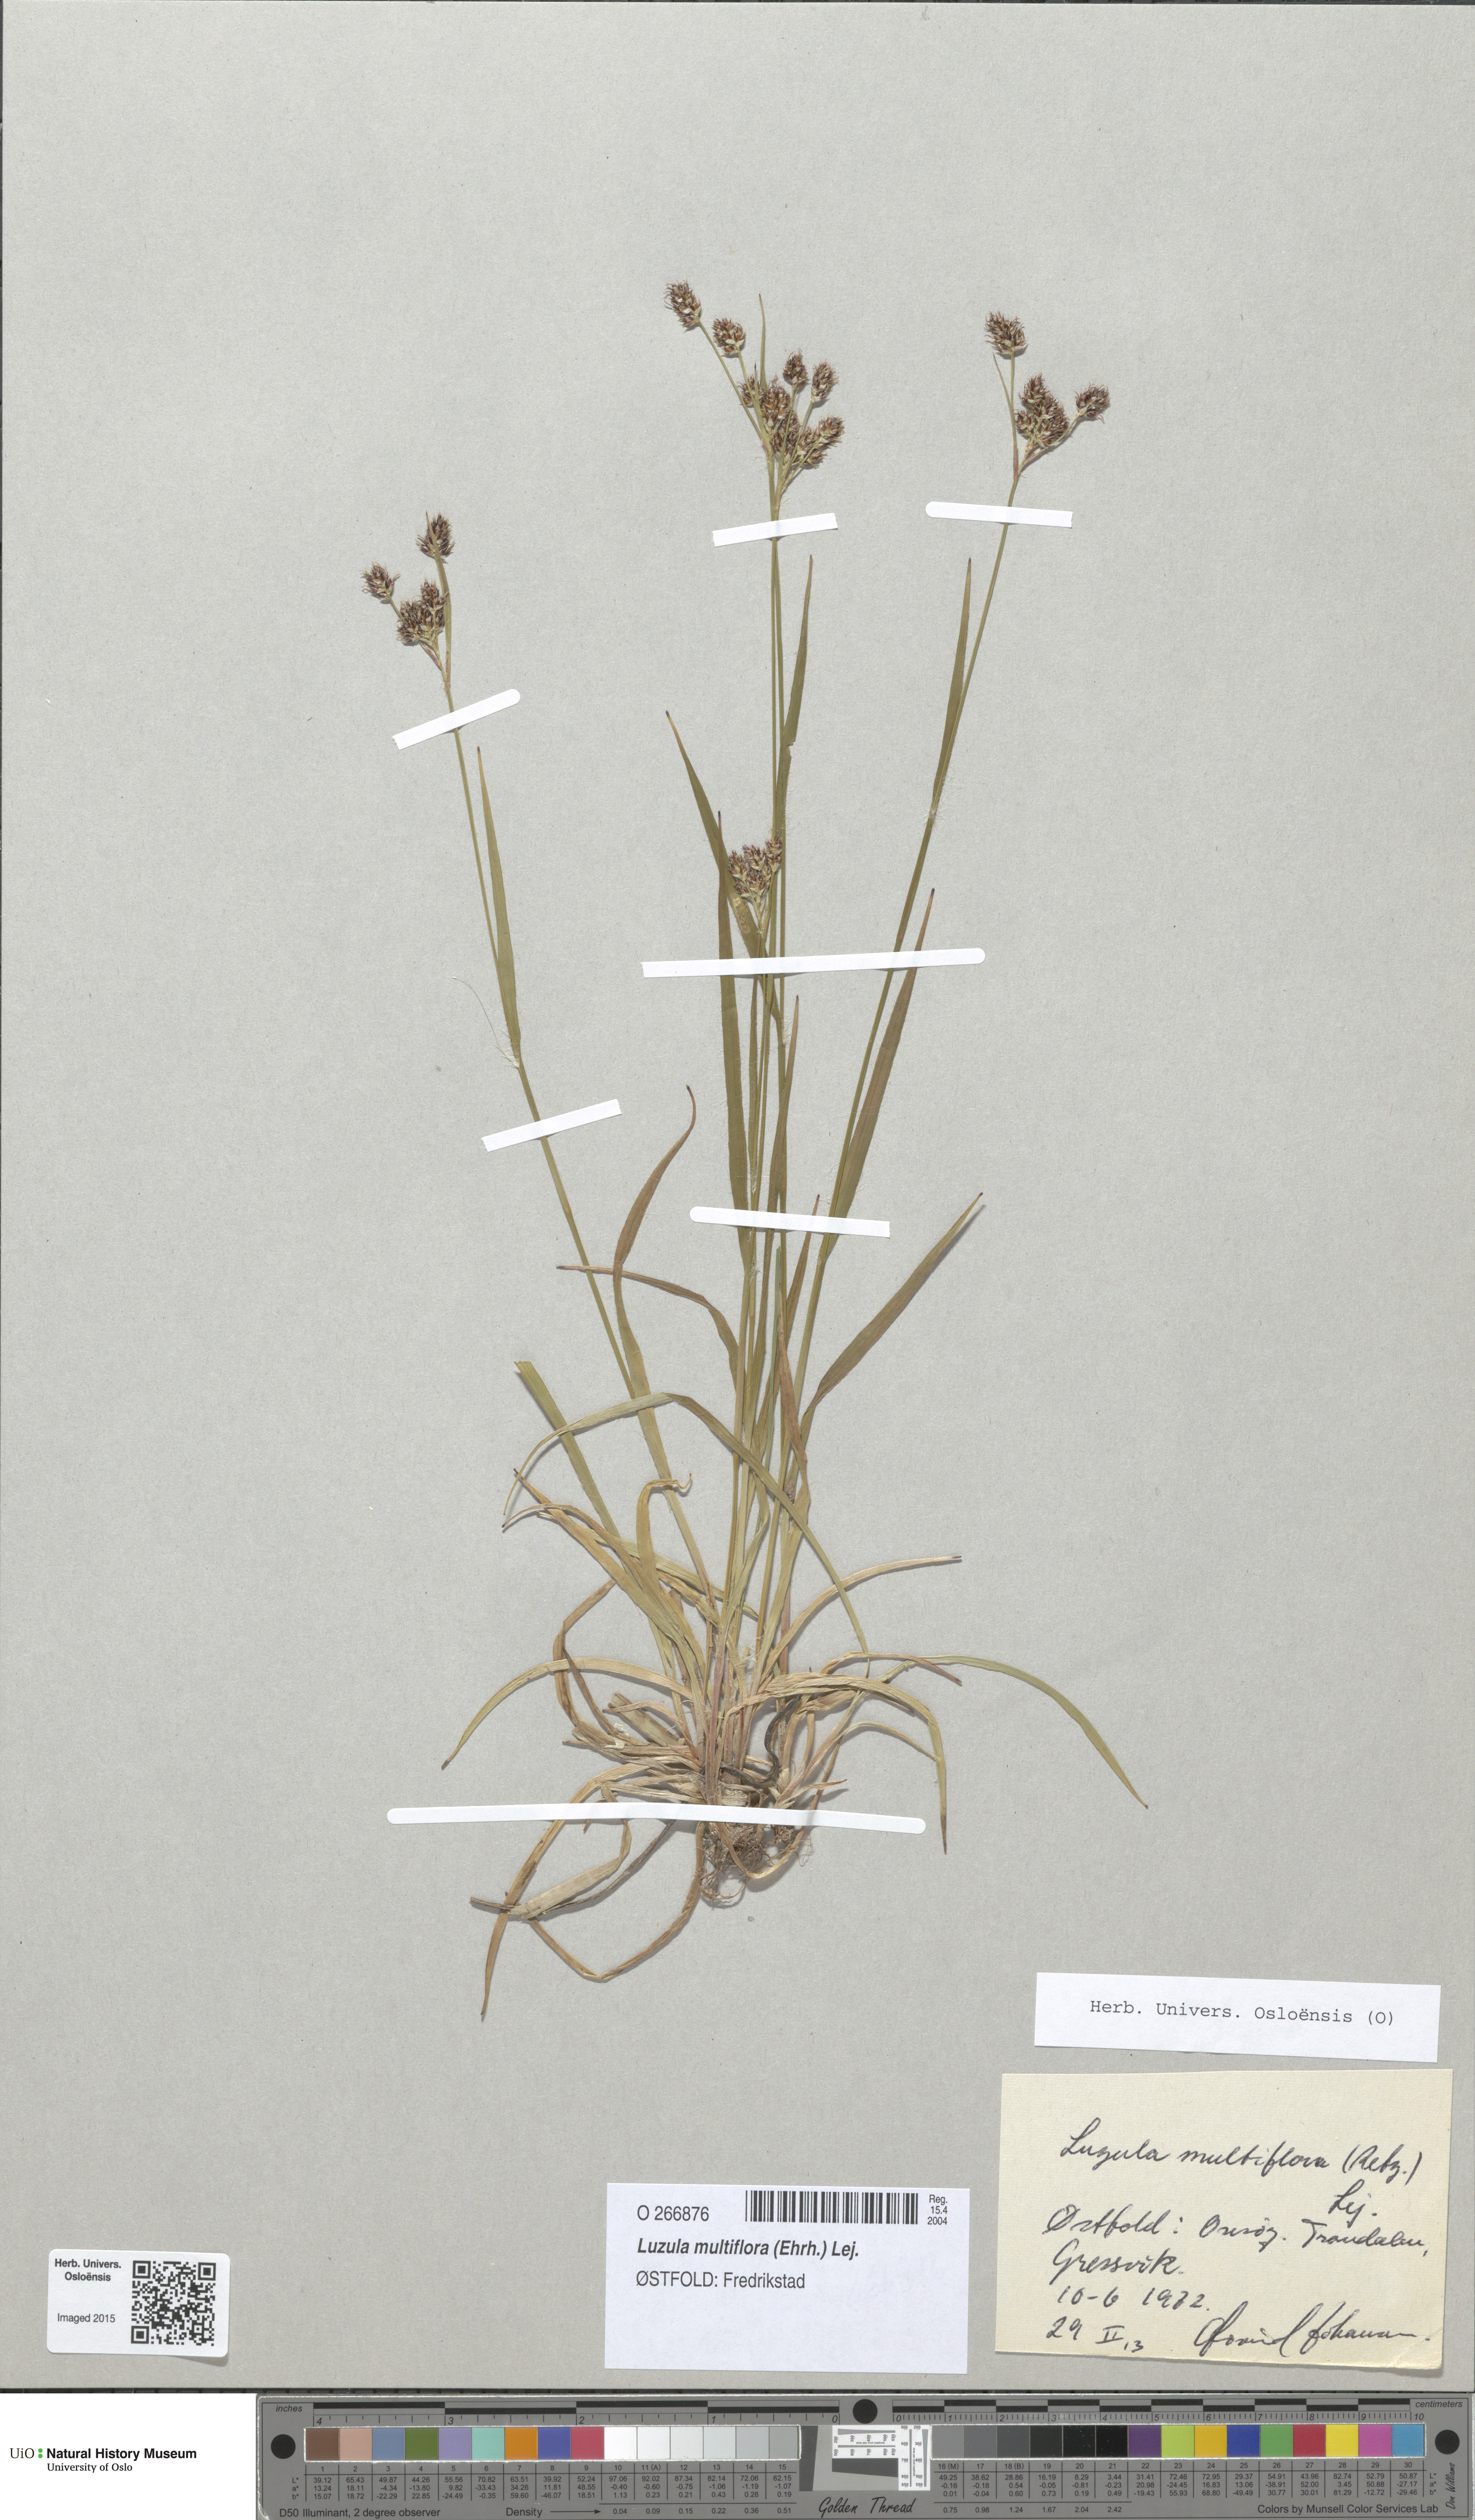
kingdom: Plantae
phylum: Tracheophyta
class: Liliopsida
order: Poales
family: Juncaceae
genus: Luzula
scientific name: Luzula multiflora
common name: Heath wood-rush
